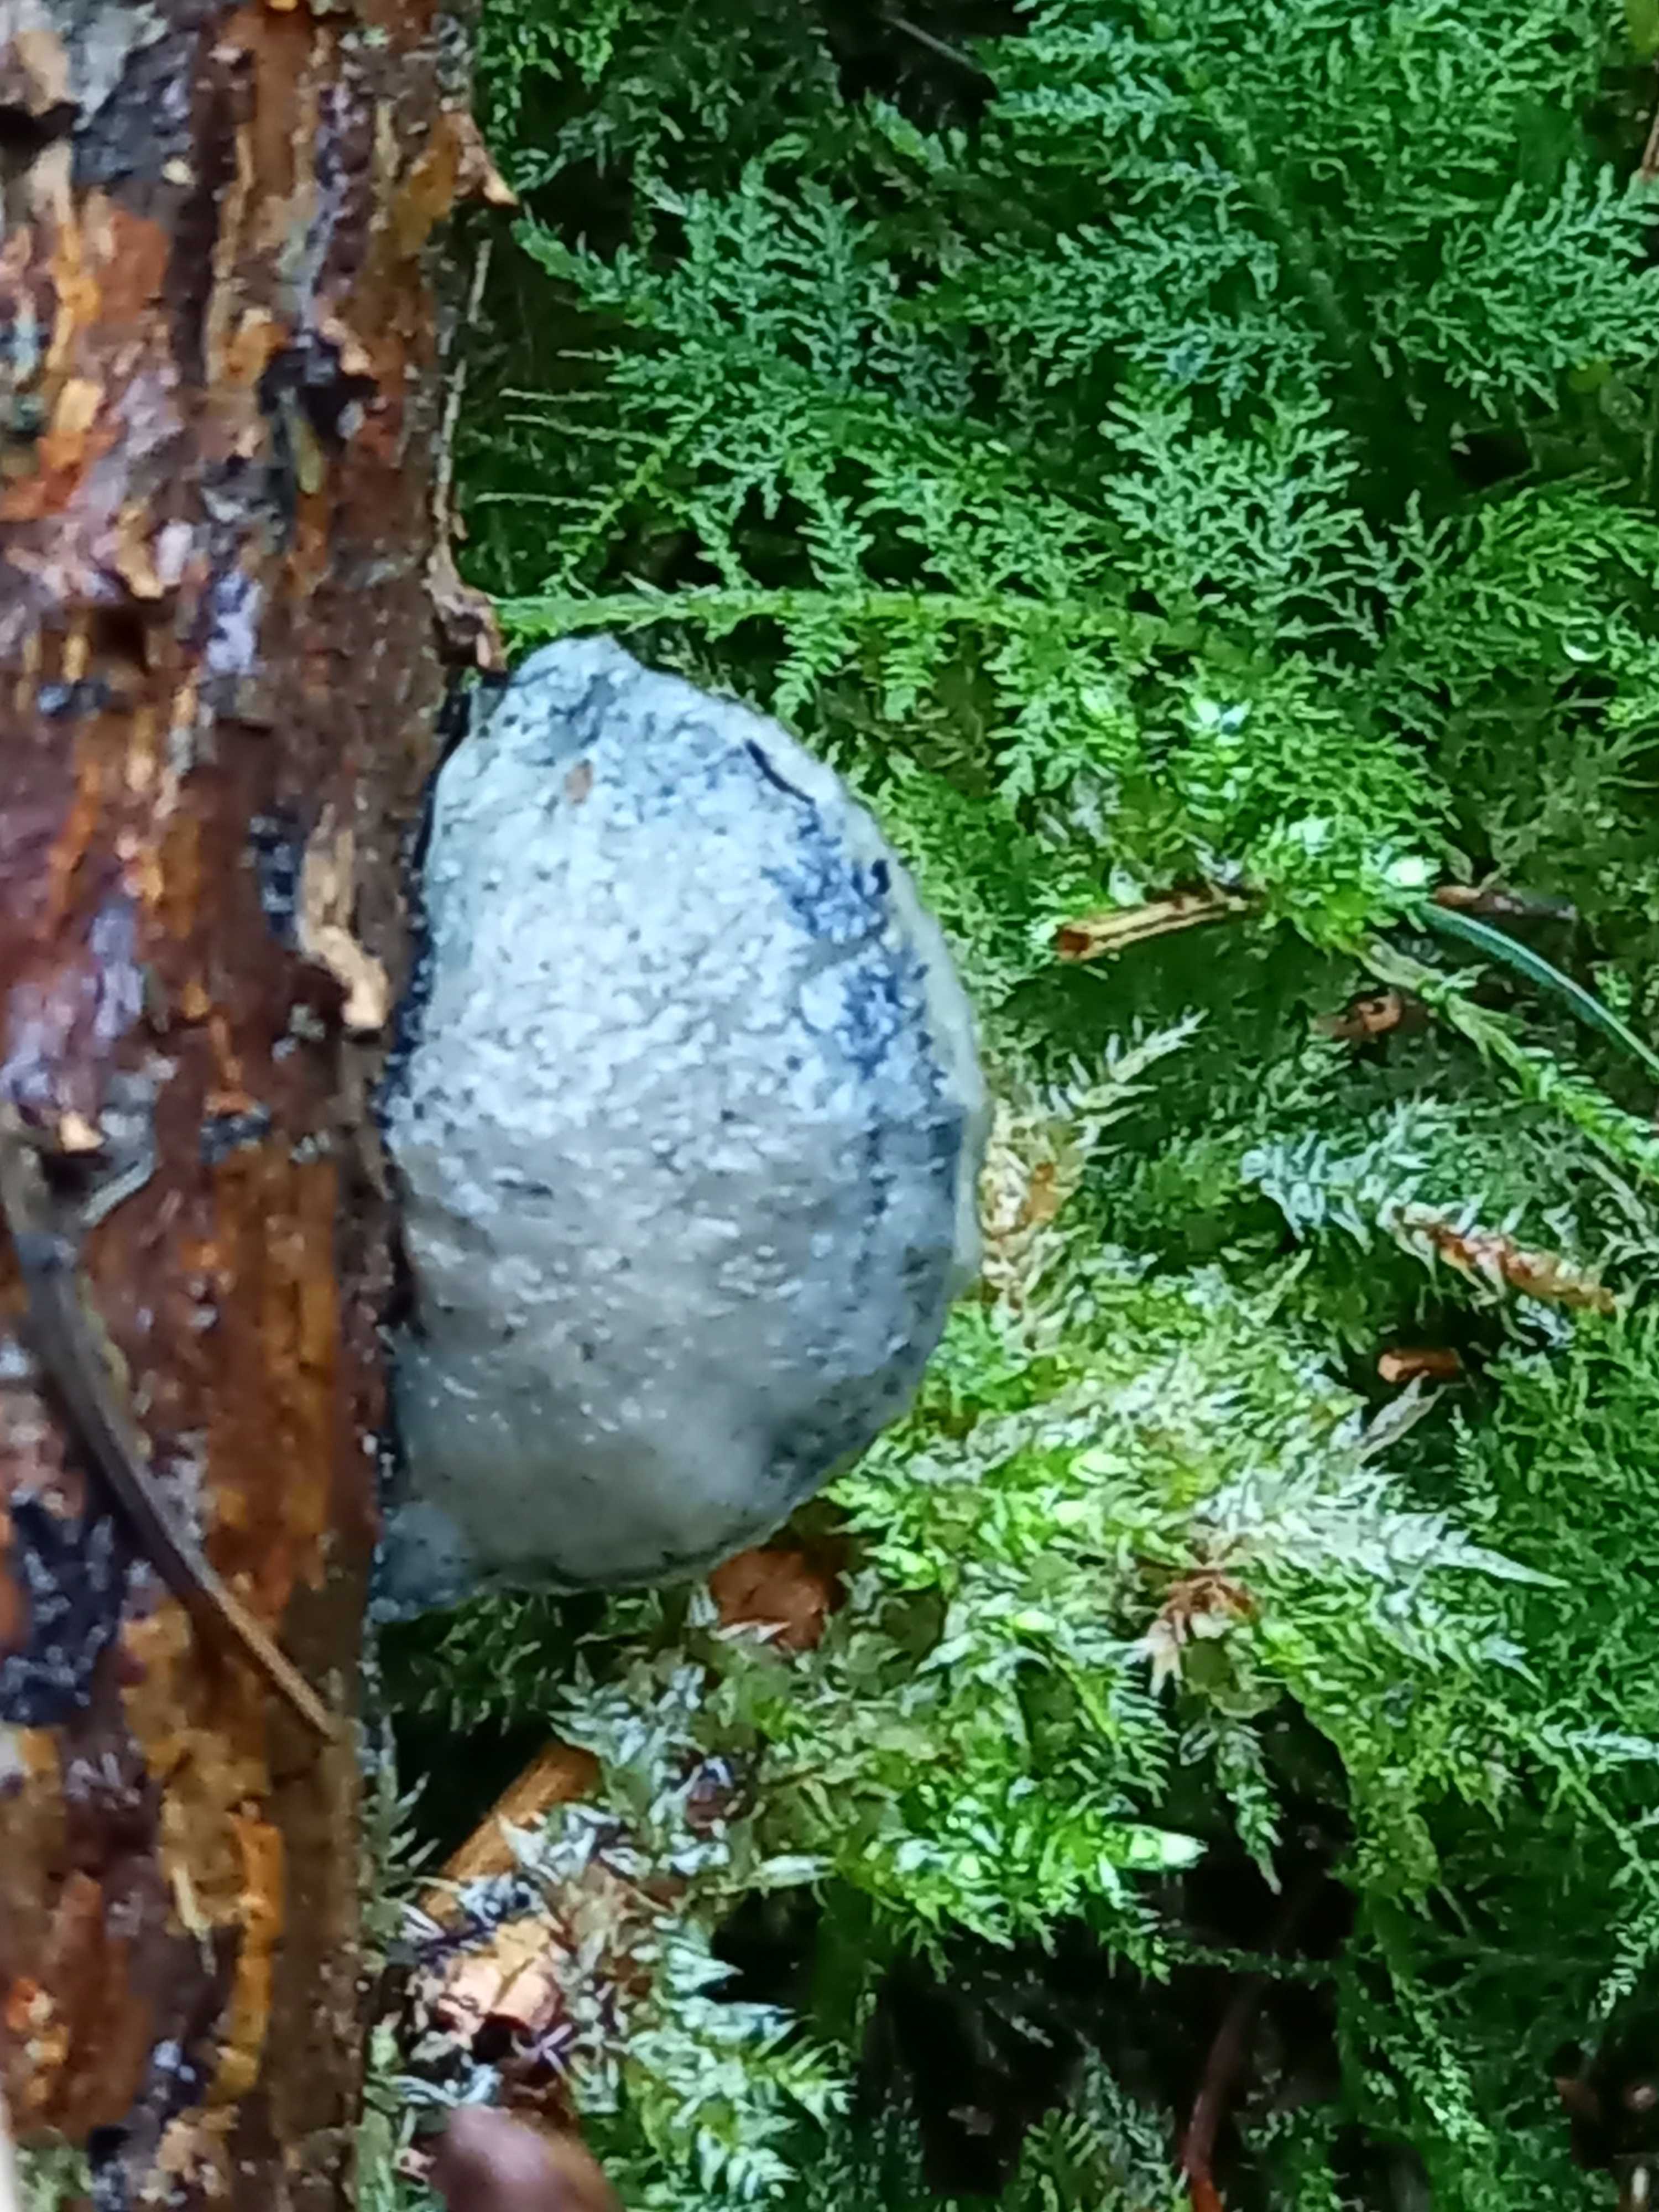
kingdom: Fungi
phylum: Basidiomycota
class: Agaricomycetes
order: Polyporales
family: Polyporaceae
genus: Cyanosporus
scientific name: Cyanosporus caesius
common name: blålig kødporesvamp
